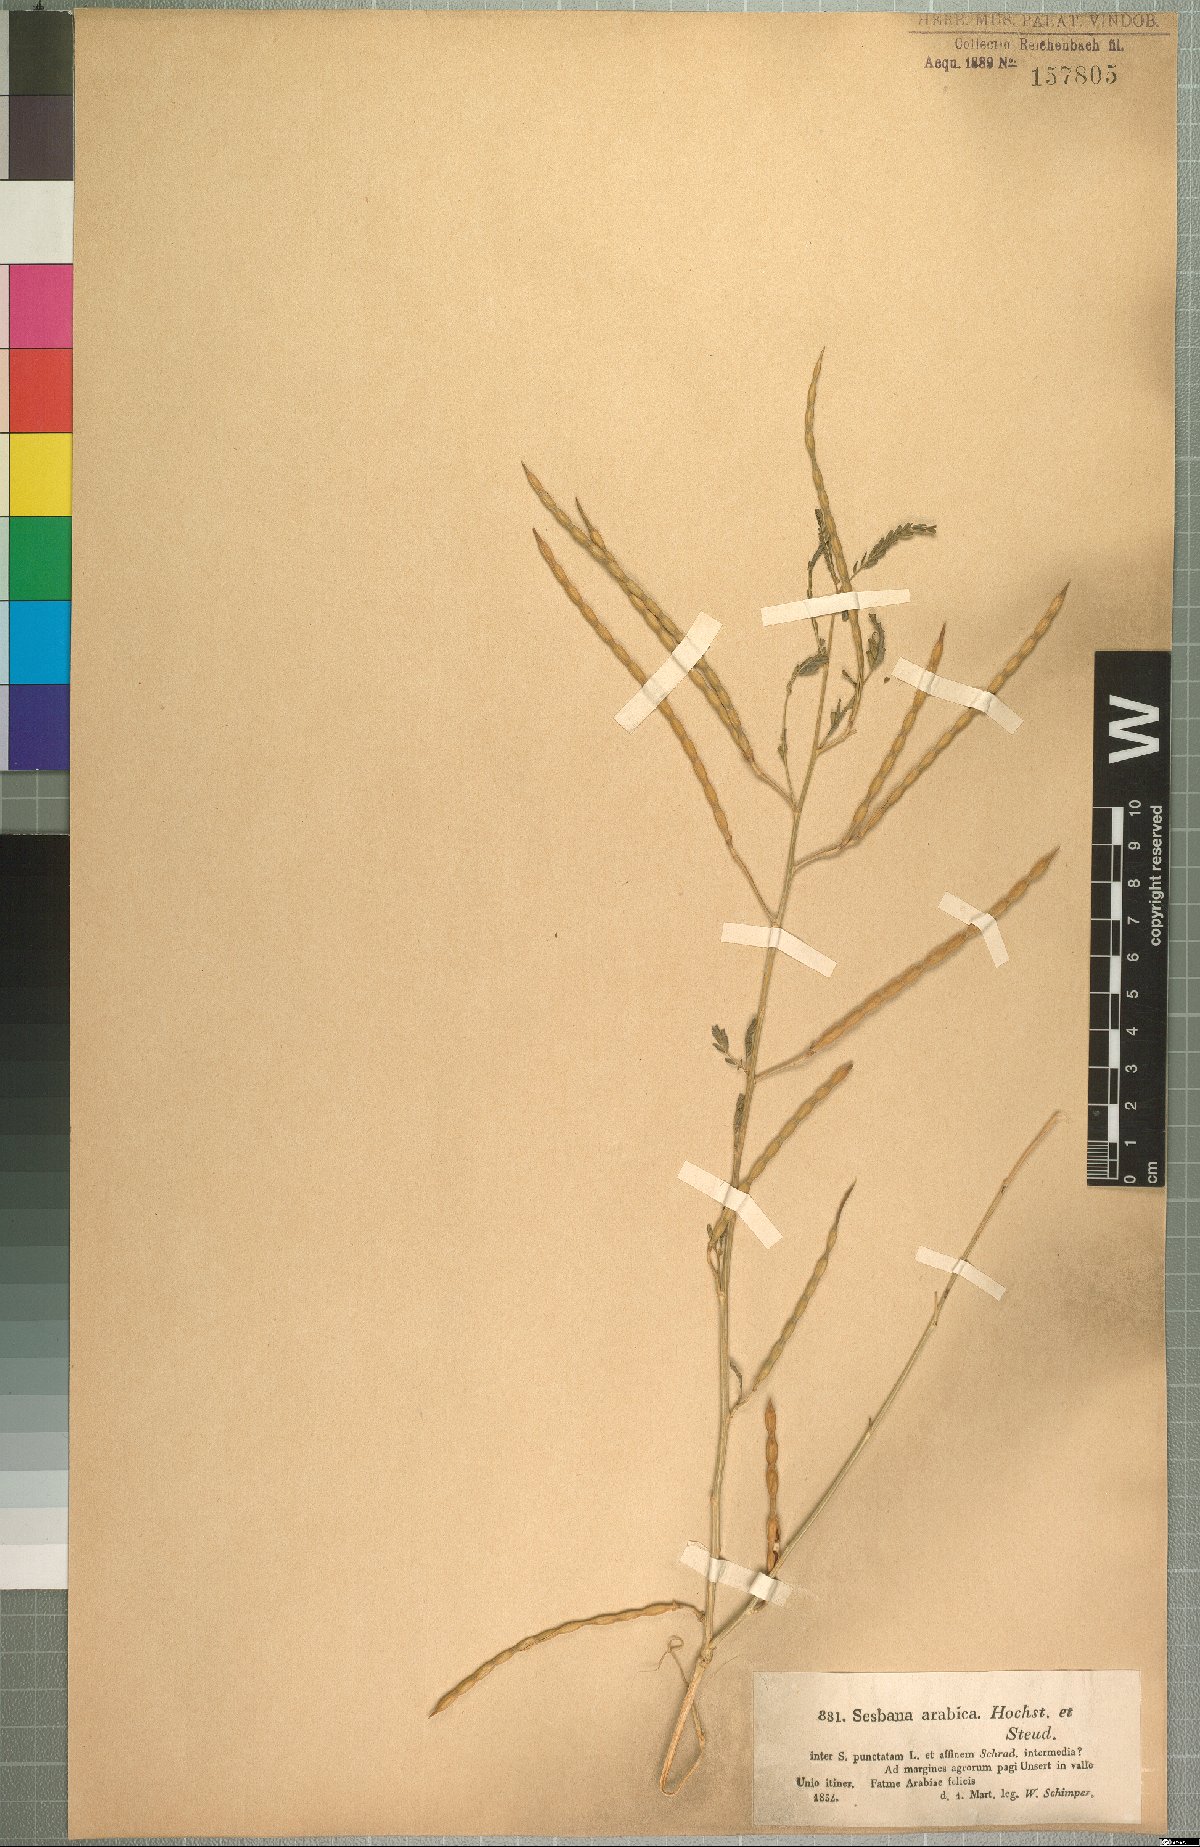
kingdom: Plantae
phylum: Tracheophyta
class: Magnoliopsida
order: Fabales
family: Fabaceae
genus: Sesbania
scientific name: Sesbania leptocarpa
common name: Riverhemp
